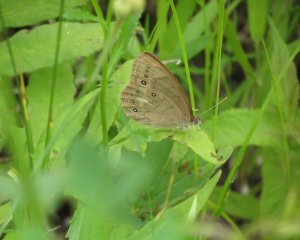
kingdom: Animalia
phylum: Arthropoda
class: Insecta
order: Lepidoptera
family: Nymphalidae
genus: Lethe
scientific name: Lethe eurydice
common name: Eyed Brown
